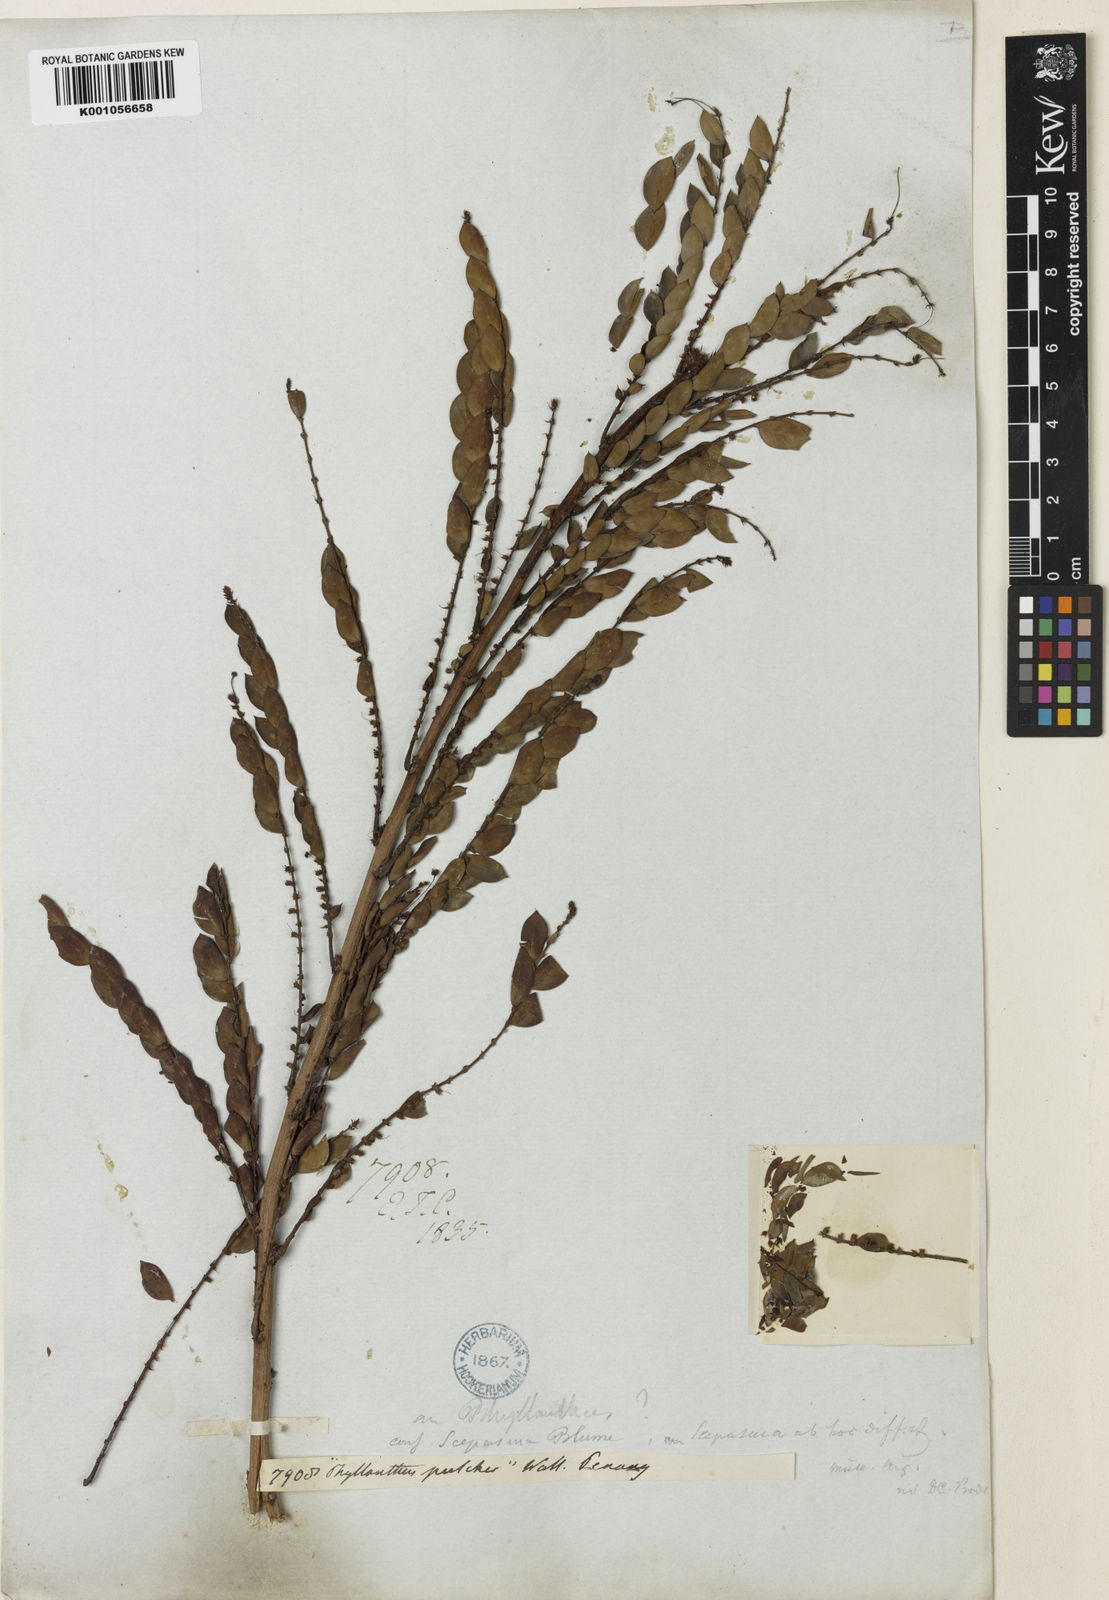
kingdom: Plantae
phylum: Tracheophyta
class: Magnoliopsida
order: Malpighiales
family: Phyllanthaceae
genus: Phyllanthus
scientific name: Phyllanthus
